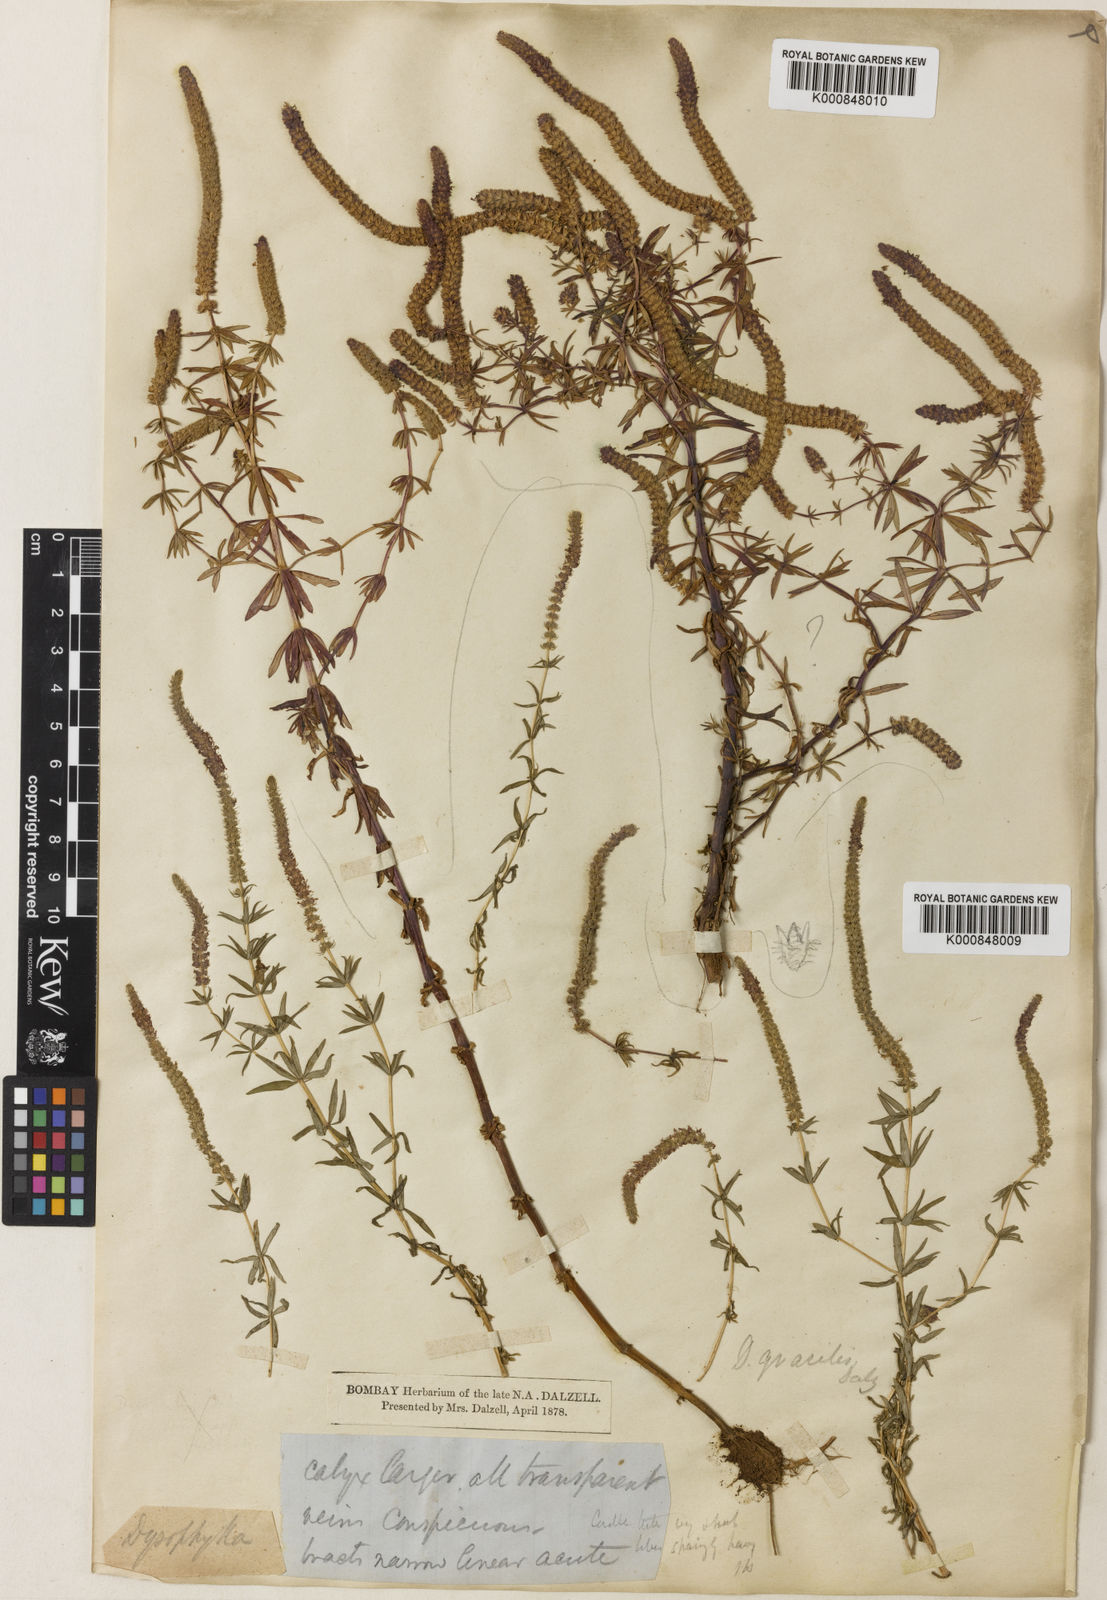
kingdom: Plantae
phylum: Tracheophyta
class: Magnoliopsida
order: Lamiales
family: Lamiaceae
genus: Pogostemon
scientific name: Pogostemon erectus
